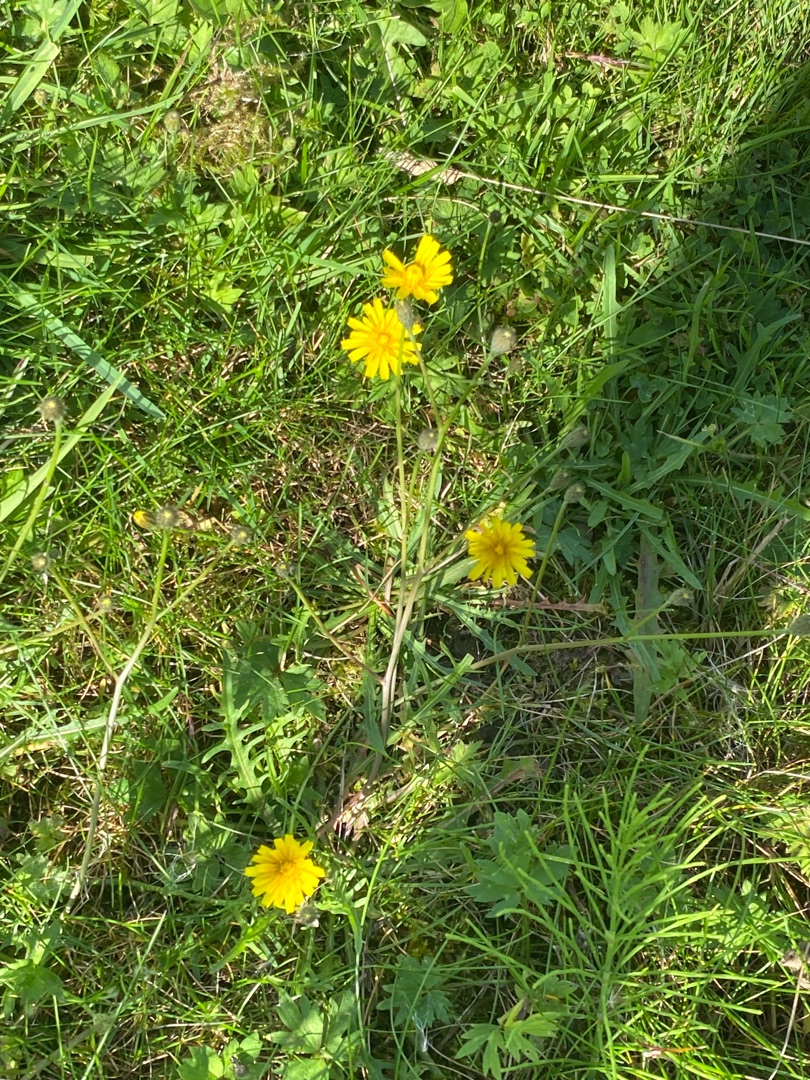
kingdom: Plantae
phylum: Tracheophyta
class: Magnoliopsida
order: Asterales
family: Asteraceae
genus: Crepis
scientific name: Crepis capillaris
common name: Grøn høgeskæg
